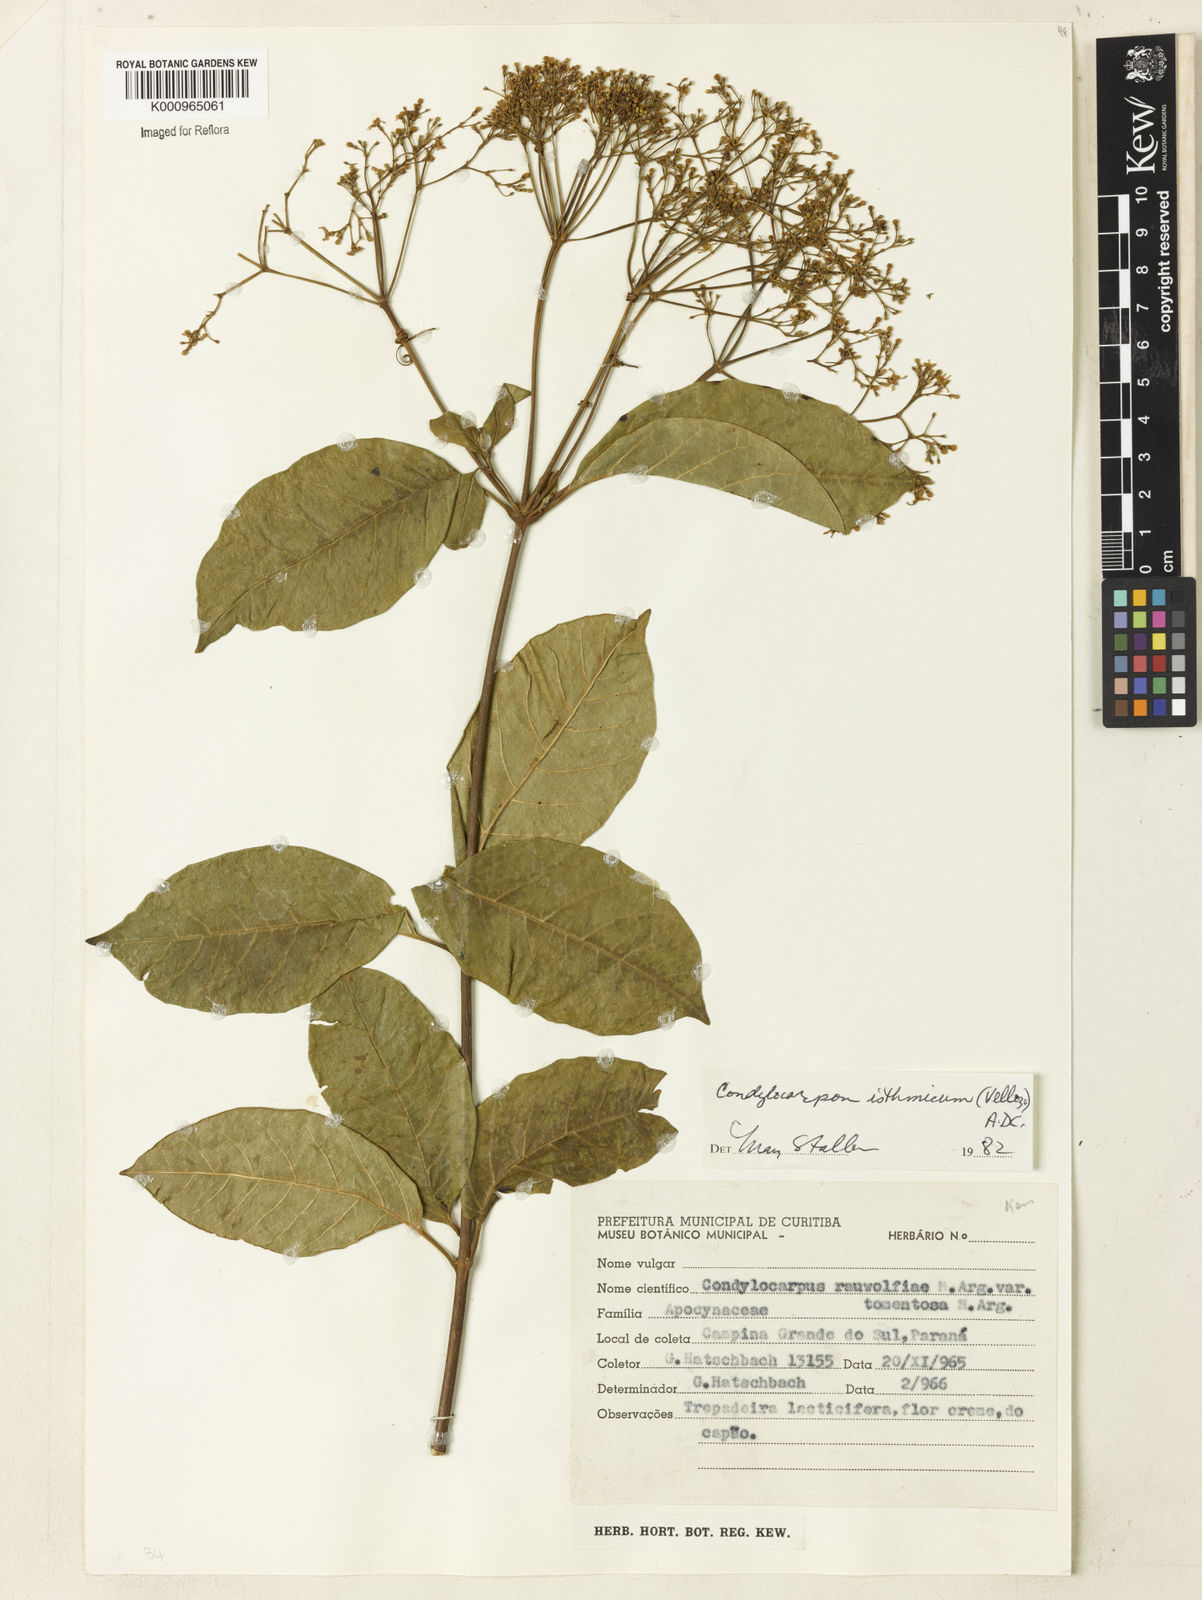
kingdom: Plantae
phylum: Tracheophyta
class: Magnoliopsida
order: Gentianales
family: Apocynaceae
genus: Condylocarpon
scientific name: Condylocarpon isthmicum
